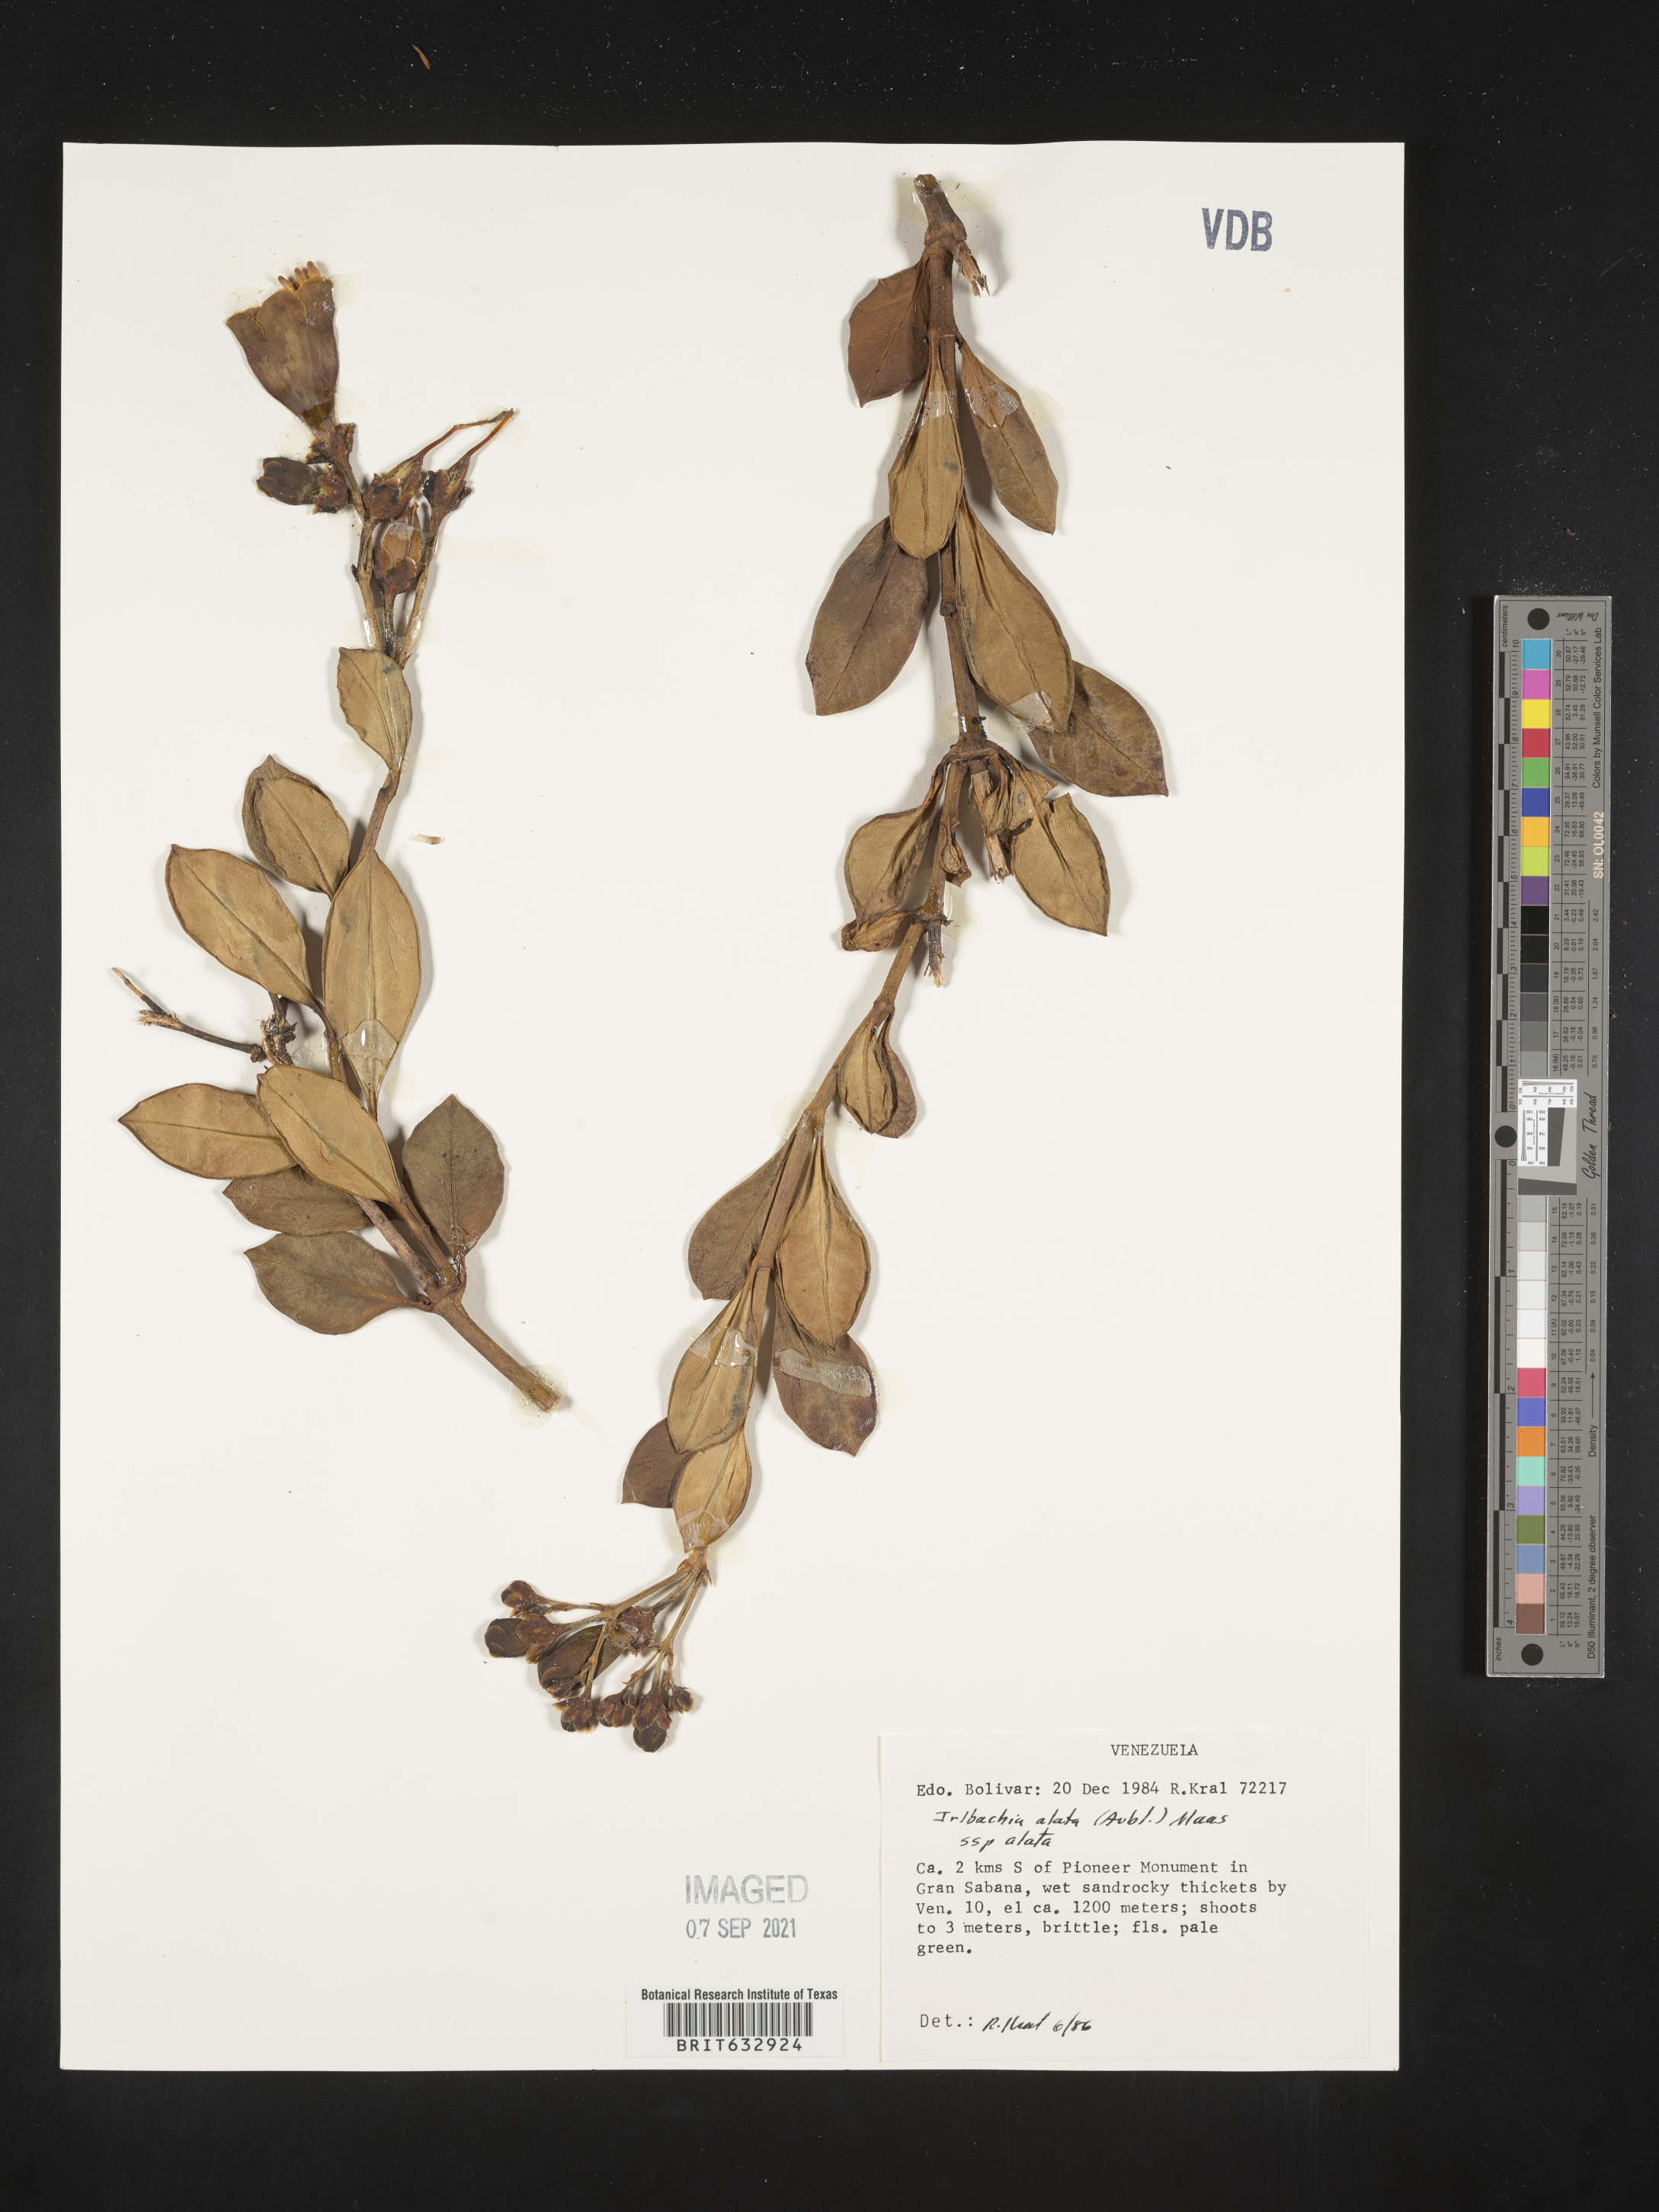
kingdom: Plantae
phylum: Tracheophyta
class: Magnoliopsida
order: Gentianales
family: Gentianaceae
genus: Irlbachia
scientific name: Irlbachia
